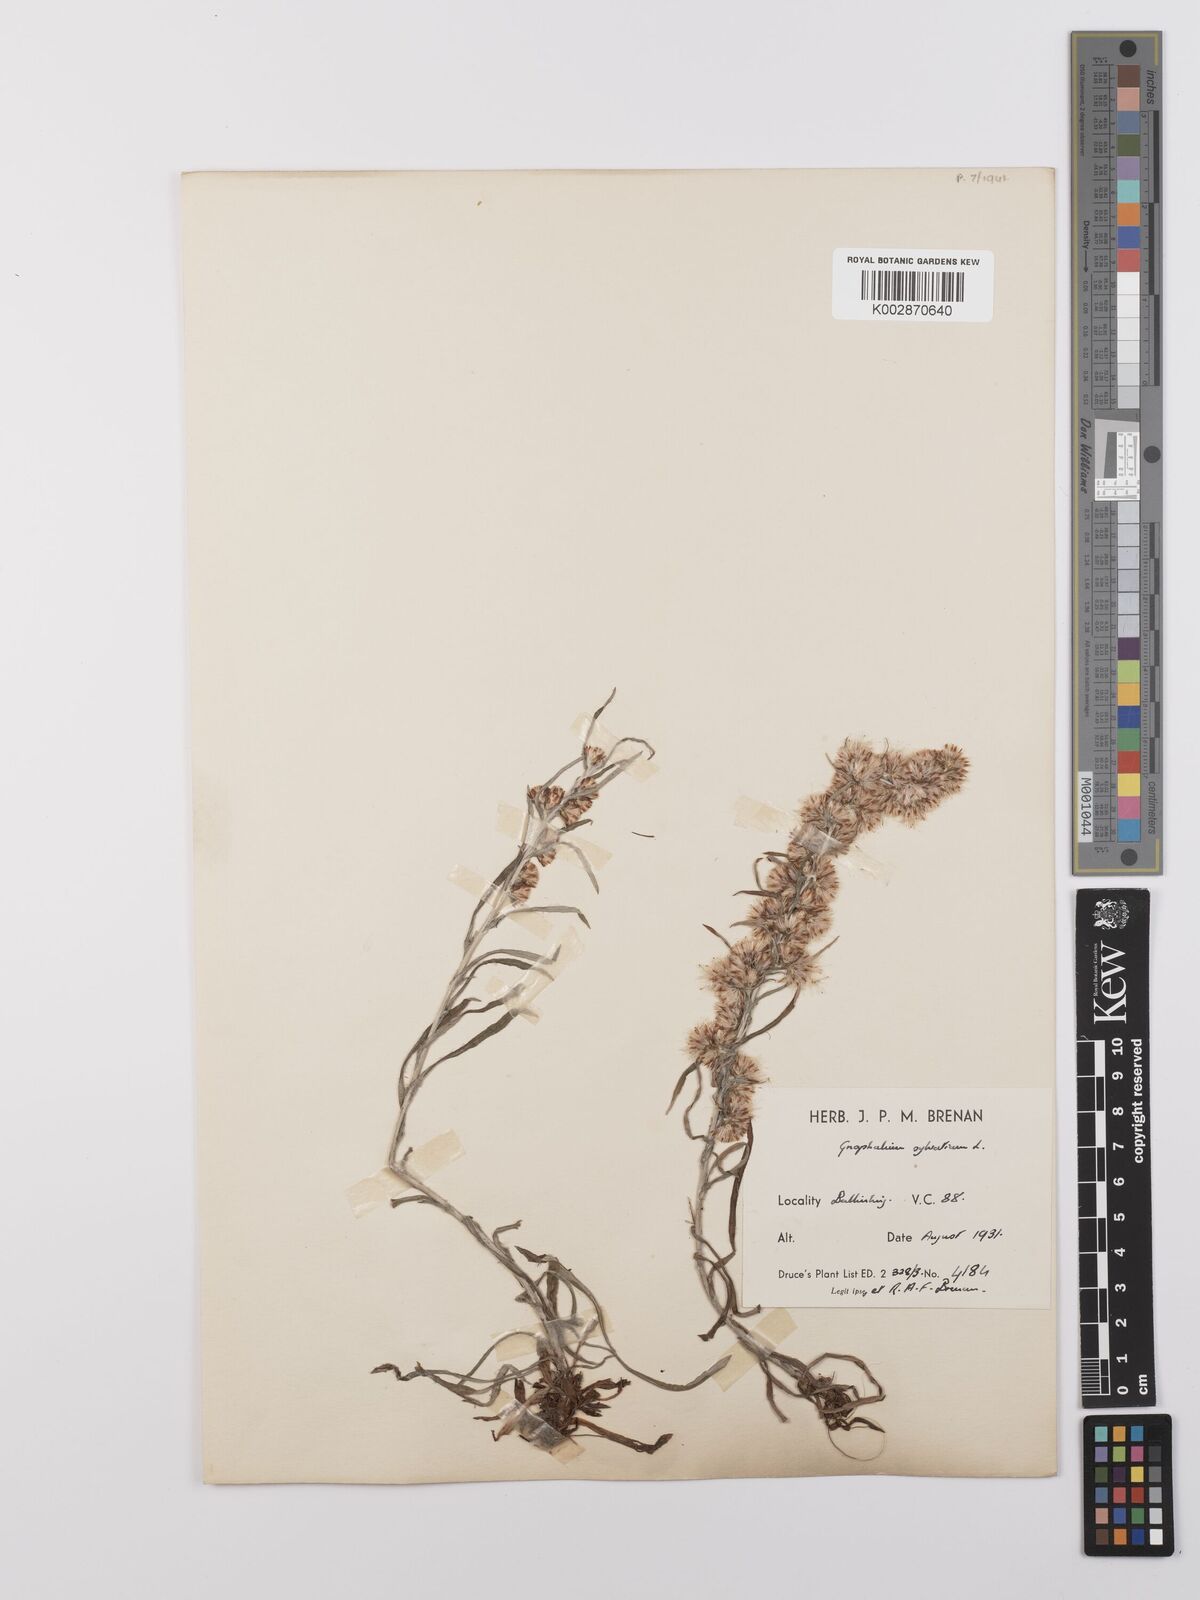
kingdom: Plantae
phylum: Tracheophyta
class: Magnoliopsida
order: Asterales
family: Asteraceae
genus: Omalotheca
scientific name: Omalotheca sylvatica
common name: Heath cudweed
